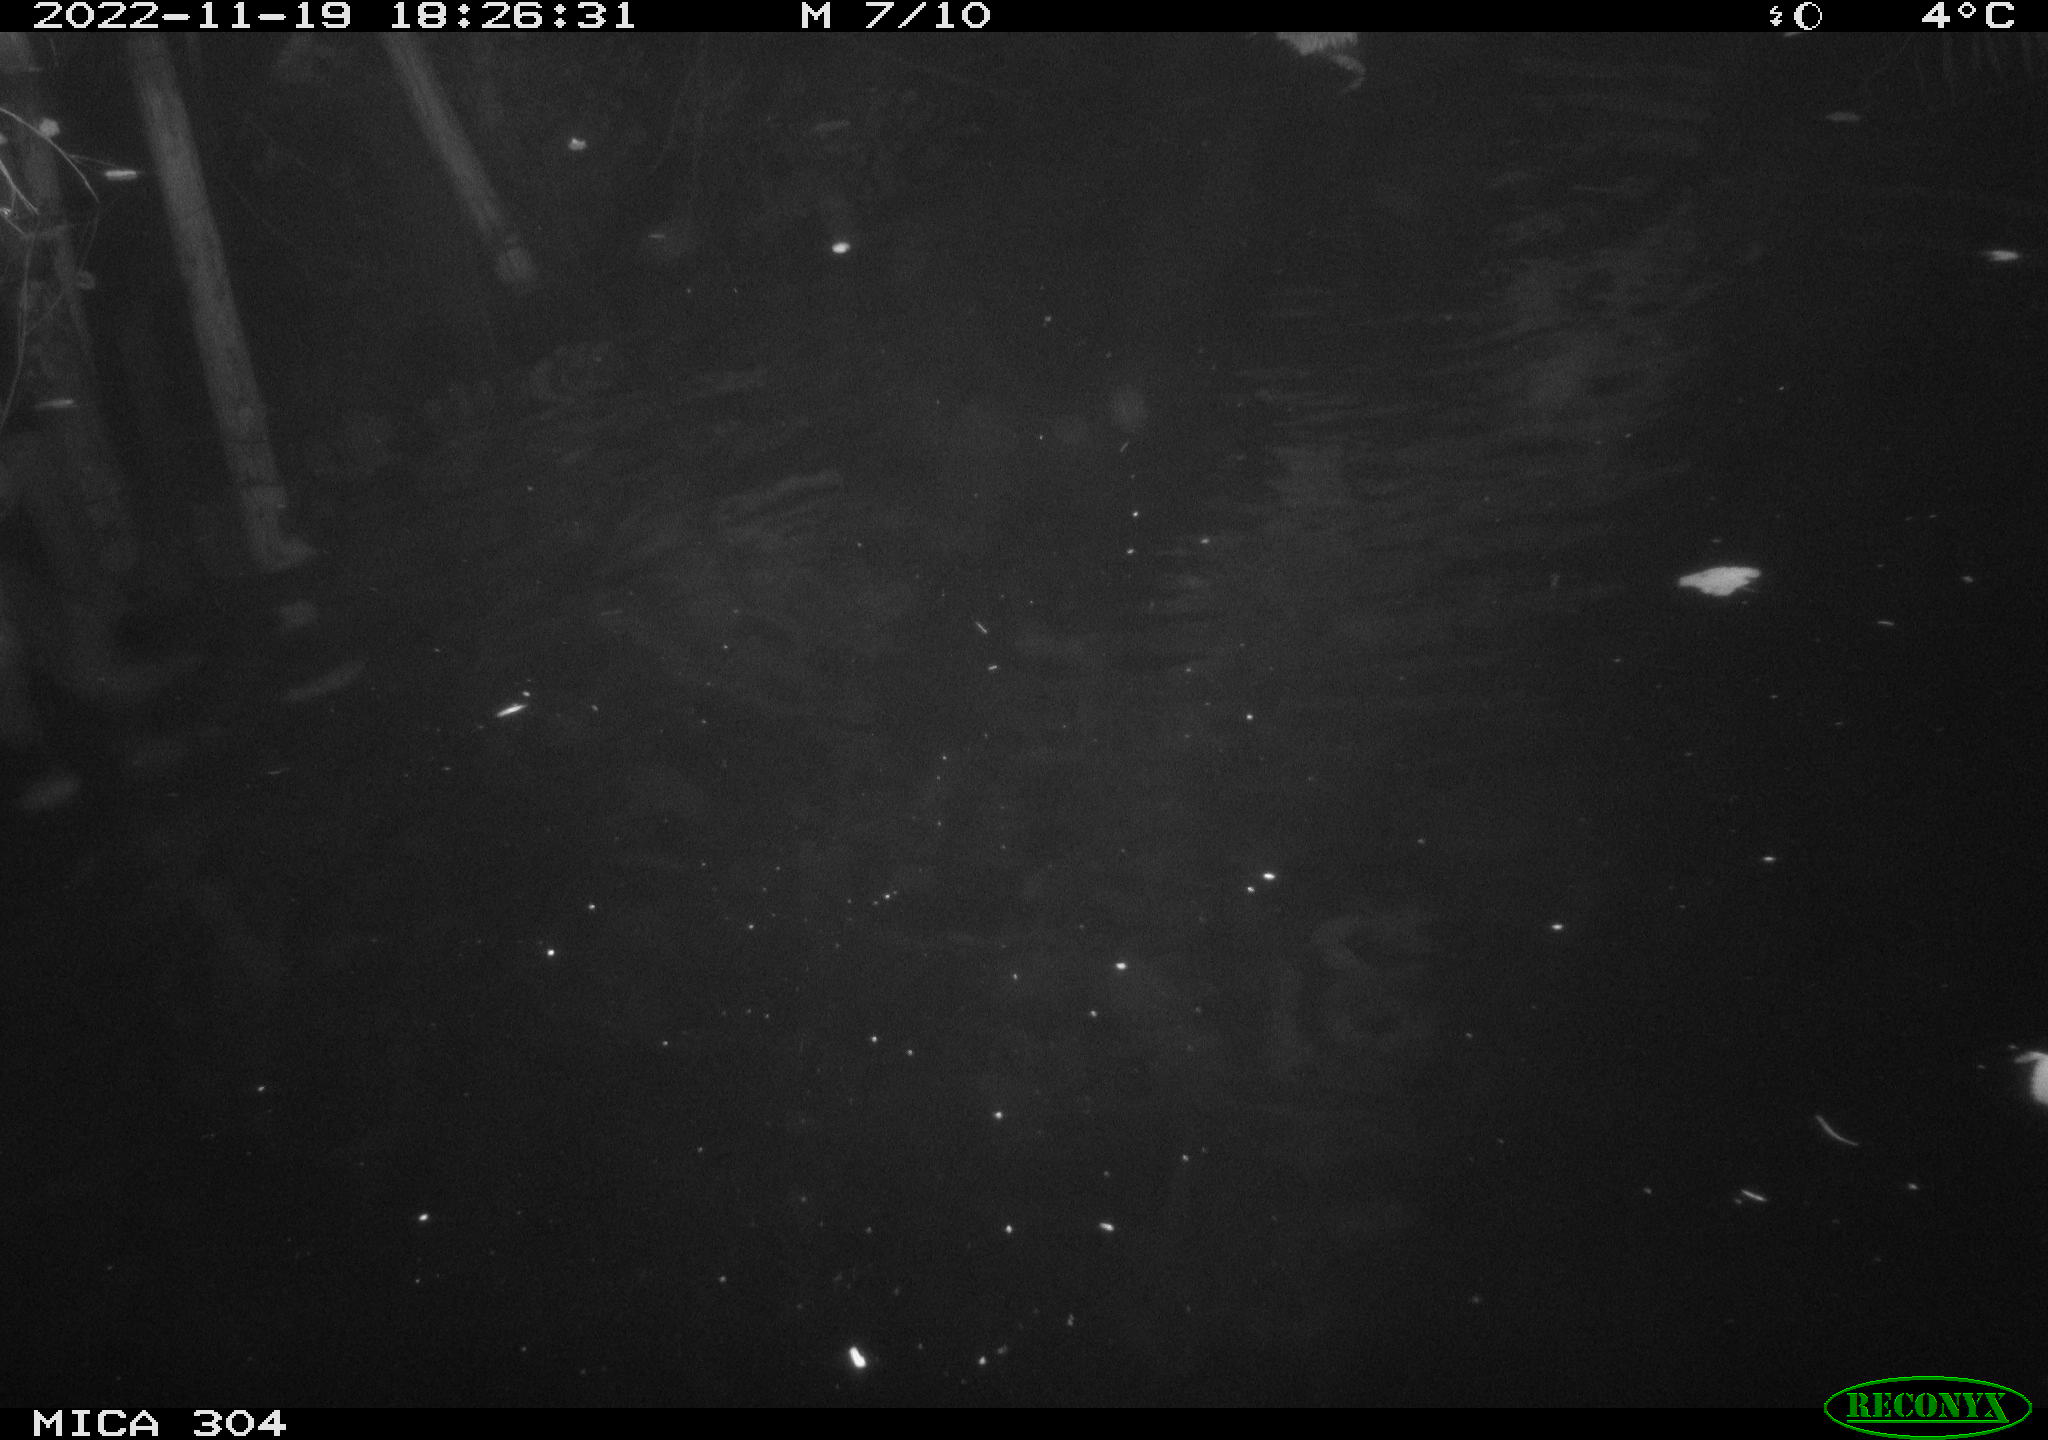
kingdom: Animalia
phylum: Chordata
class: Mammalia
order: Rodentia
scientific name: Rodentia
